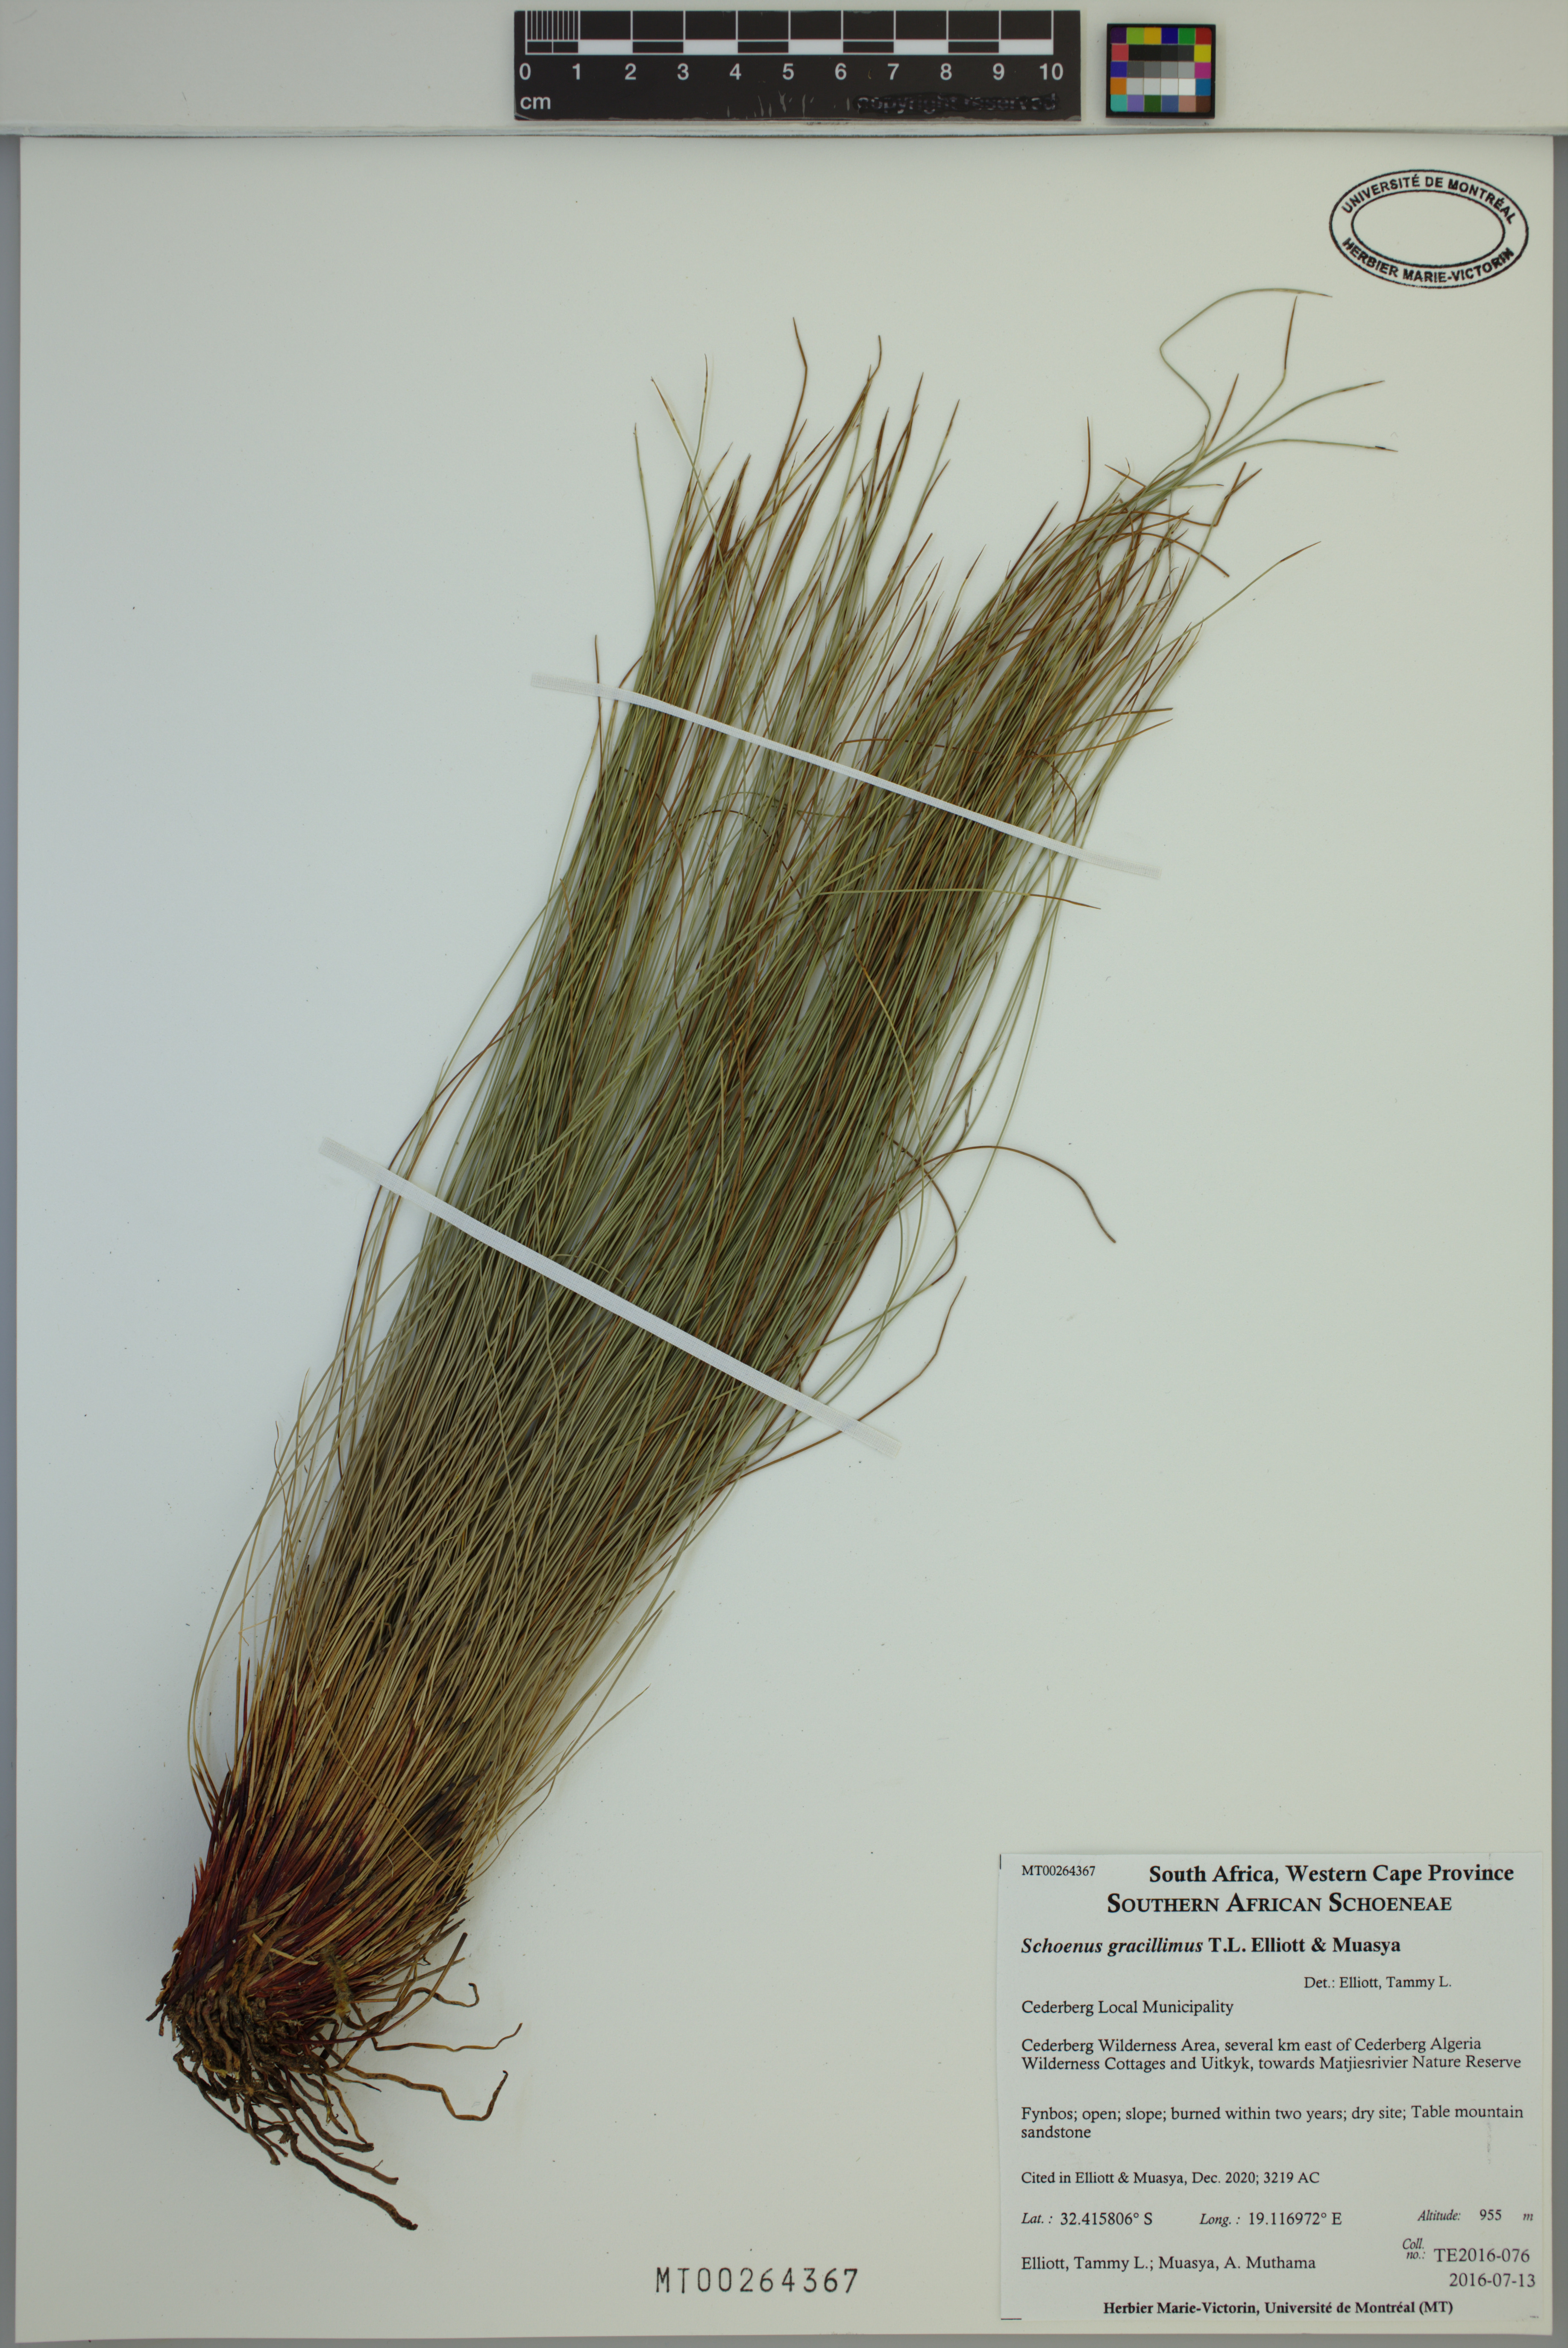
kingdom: Plantae
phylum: Tracheophyta
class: Liliopsida
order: Poales
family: Cyperaceae
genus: Schoenus
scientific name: Schoenus gracillimus
